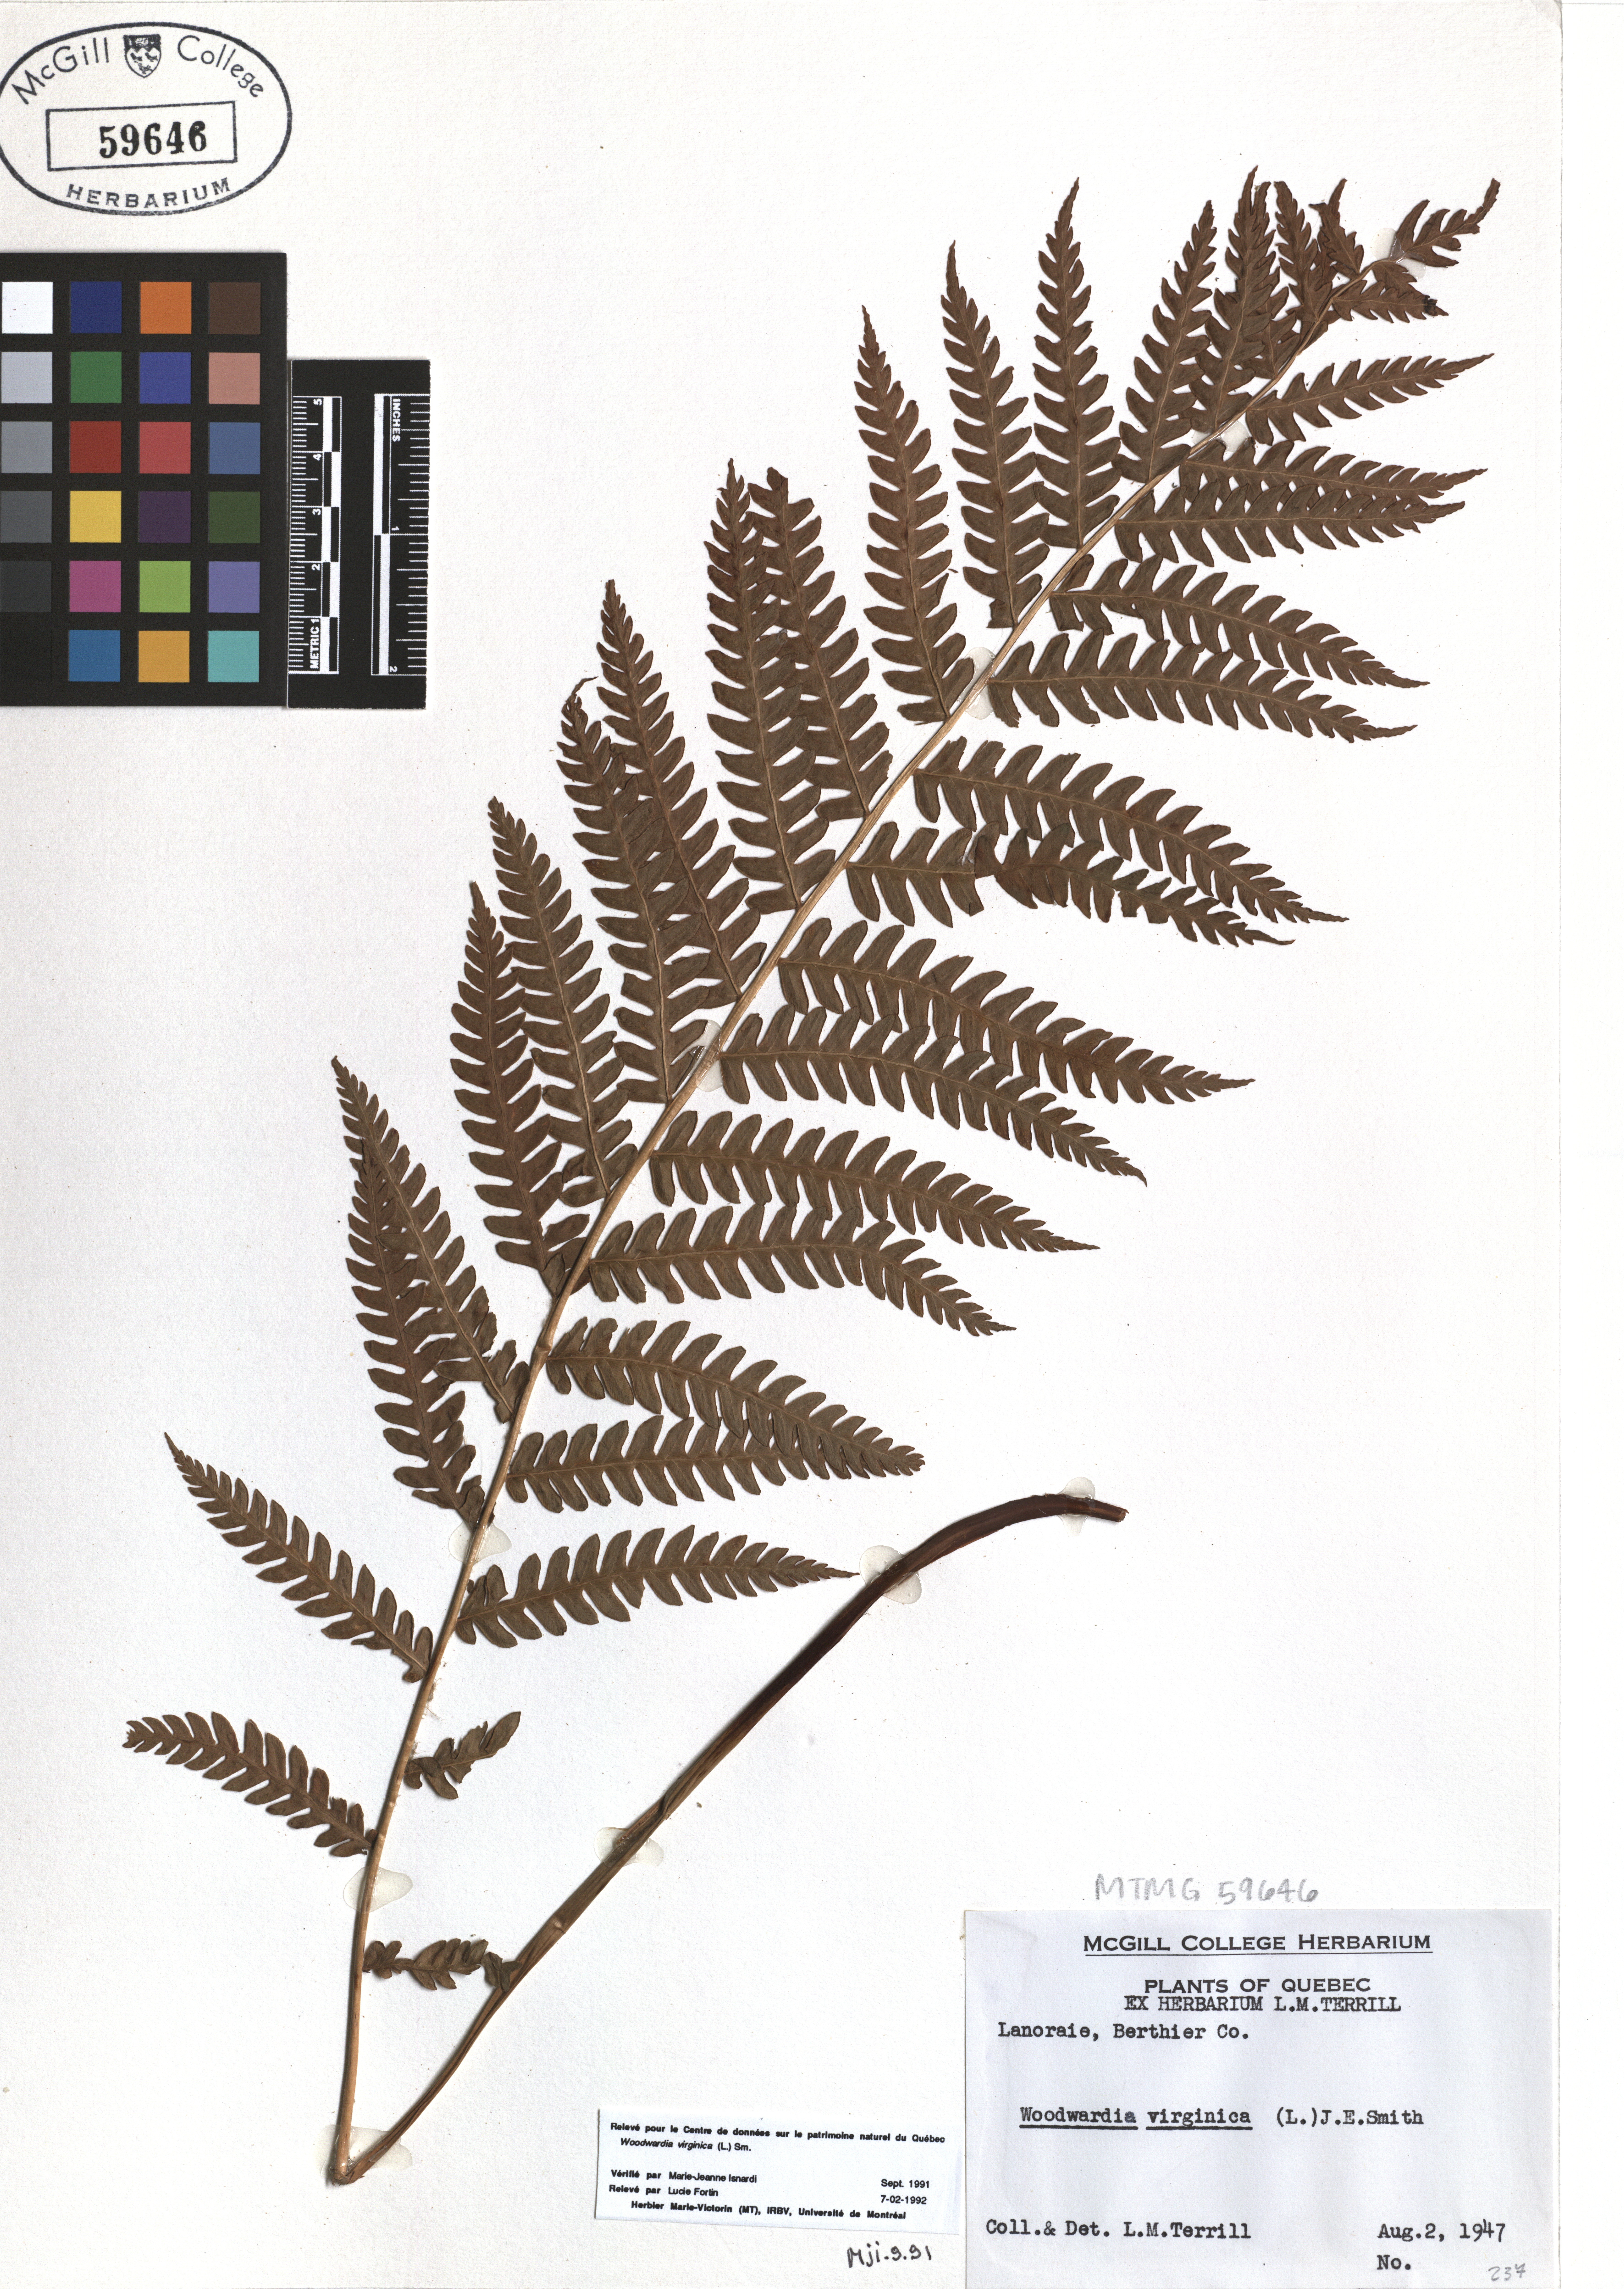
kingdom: Plantae
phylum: Tracheophyta
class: Polypodiopsida
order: Polypodiales
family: Blechnaceae
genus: Anchistea
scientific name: Anchistea virginica
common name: Virginia chain fern
